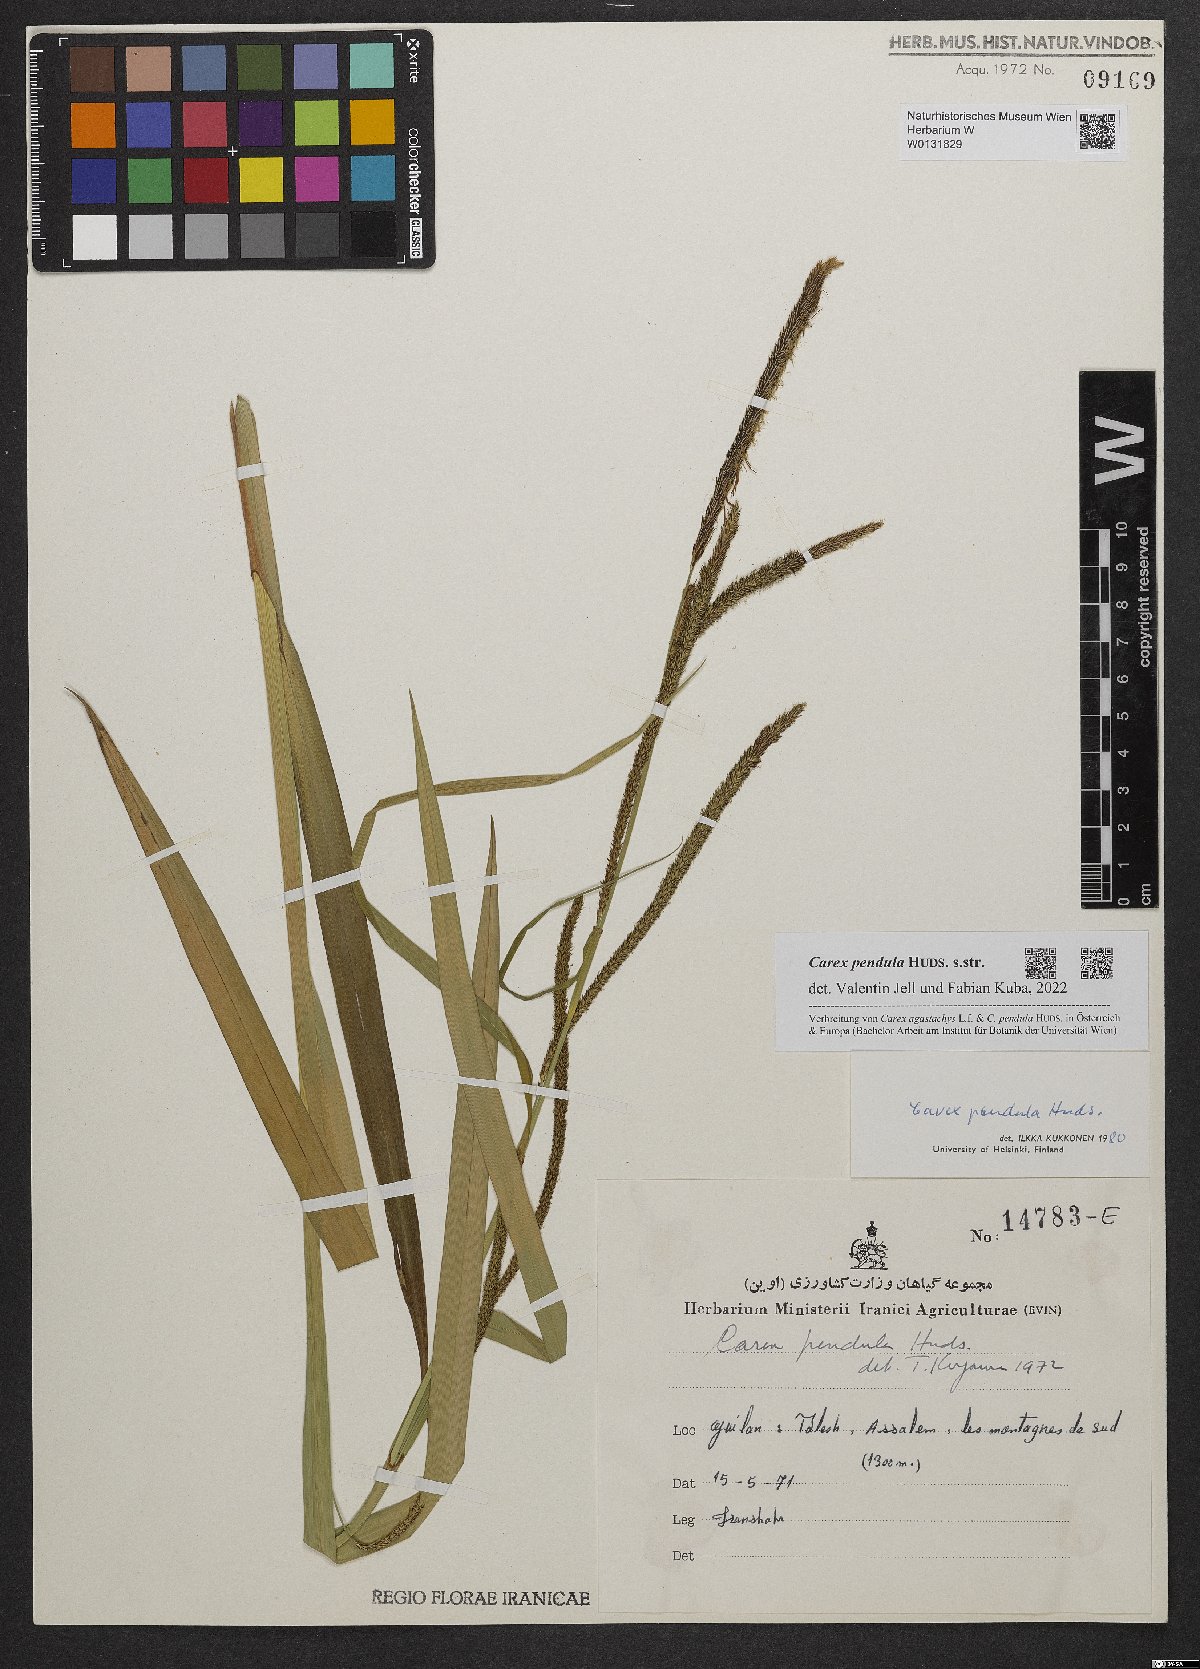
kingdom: Plantae
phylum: Tracheophyta
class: Liliopsida
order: Poales
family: Cyperaceae
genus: Carex
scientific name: Carex pendula
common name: Pendulous sedge
